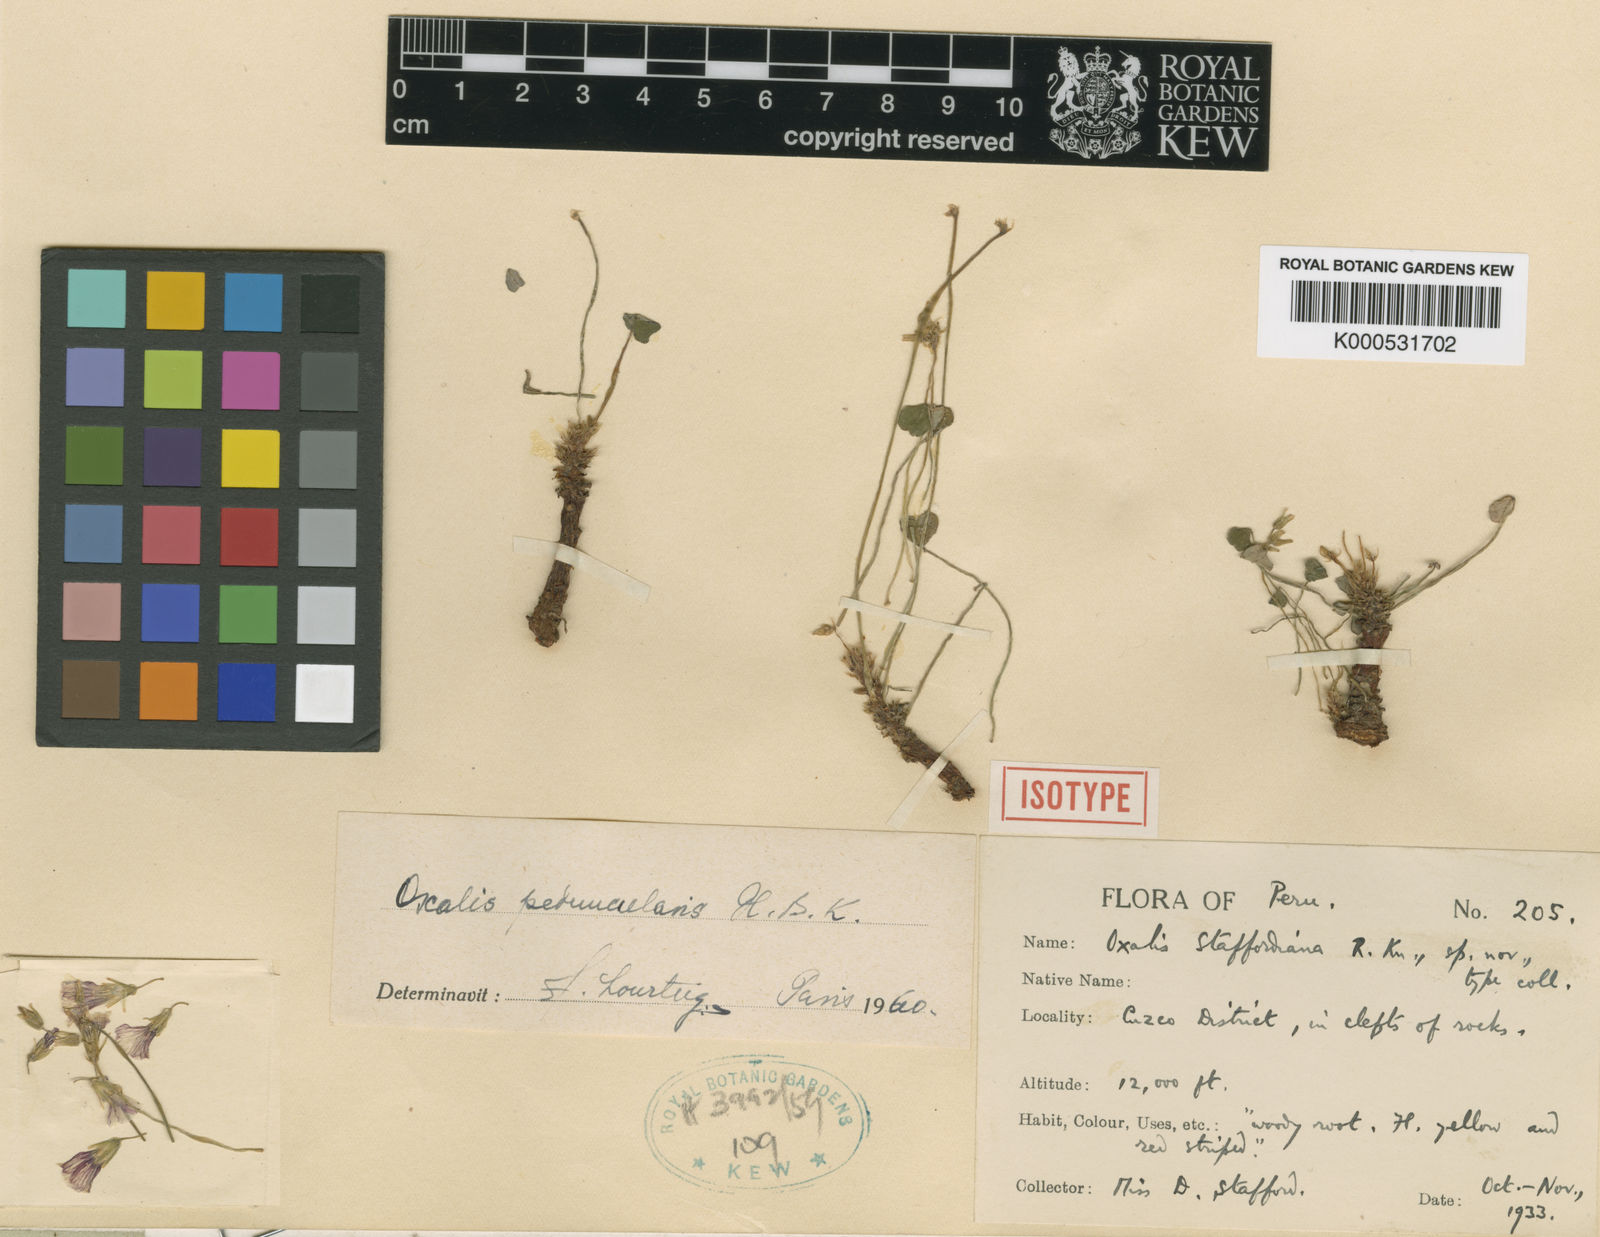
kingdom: Plantae
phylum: Tracheophyta
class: Magnoliopsida
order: Oxalidales
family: Oxalidaceae
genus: Oxalis
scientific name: Oxalis peduncularis
